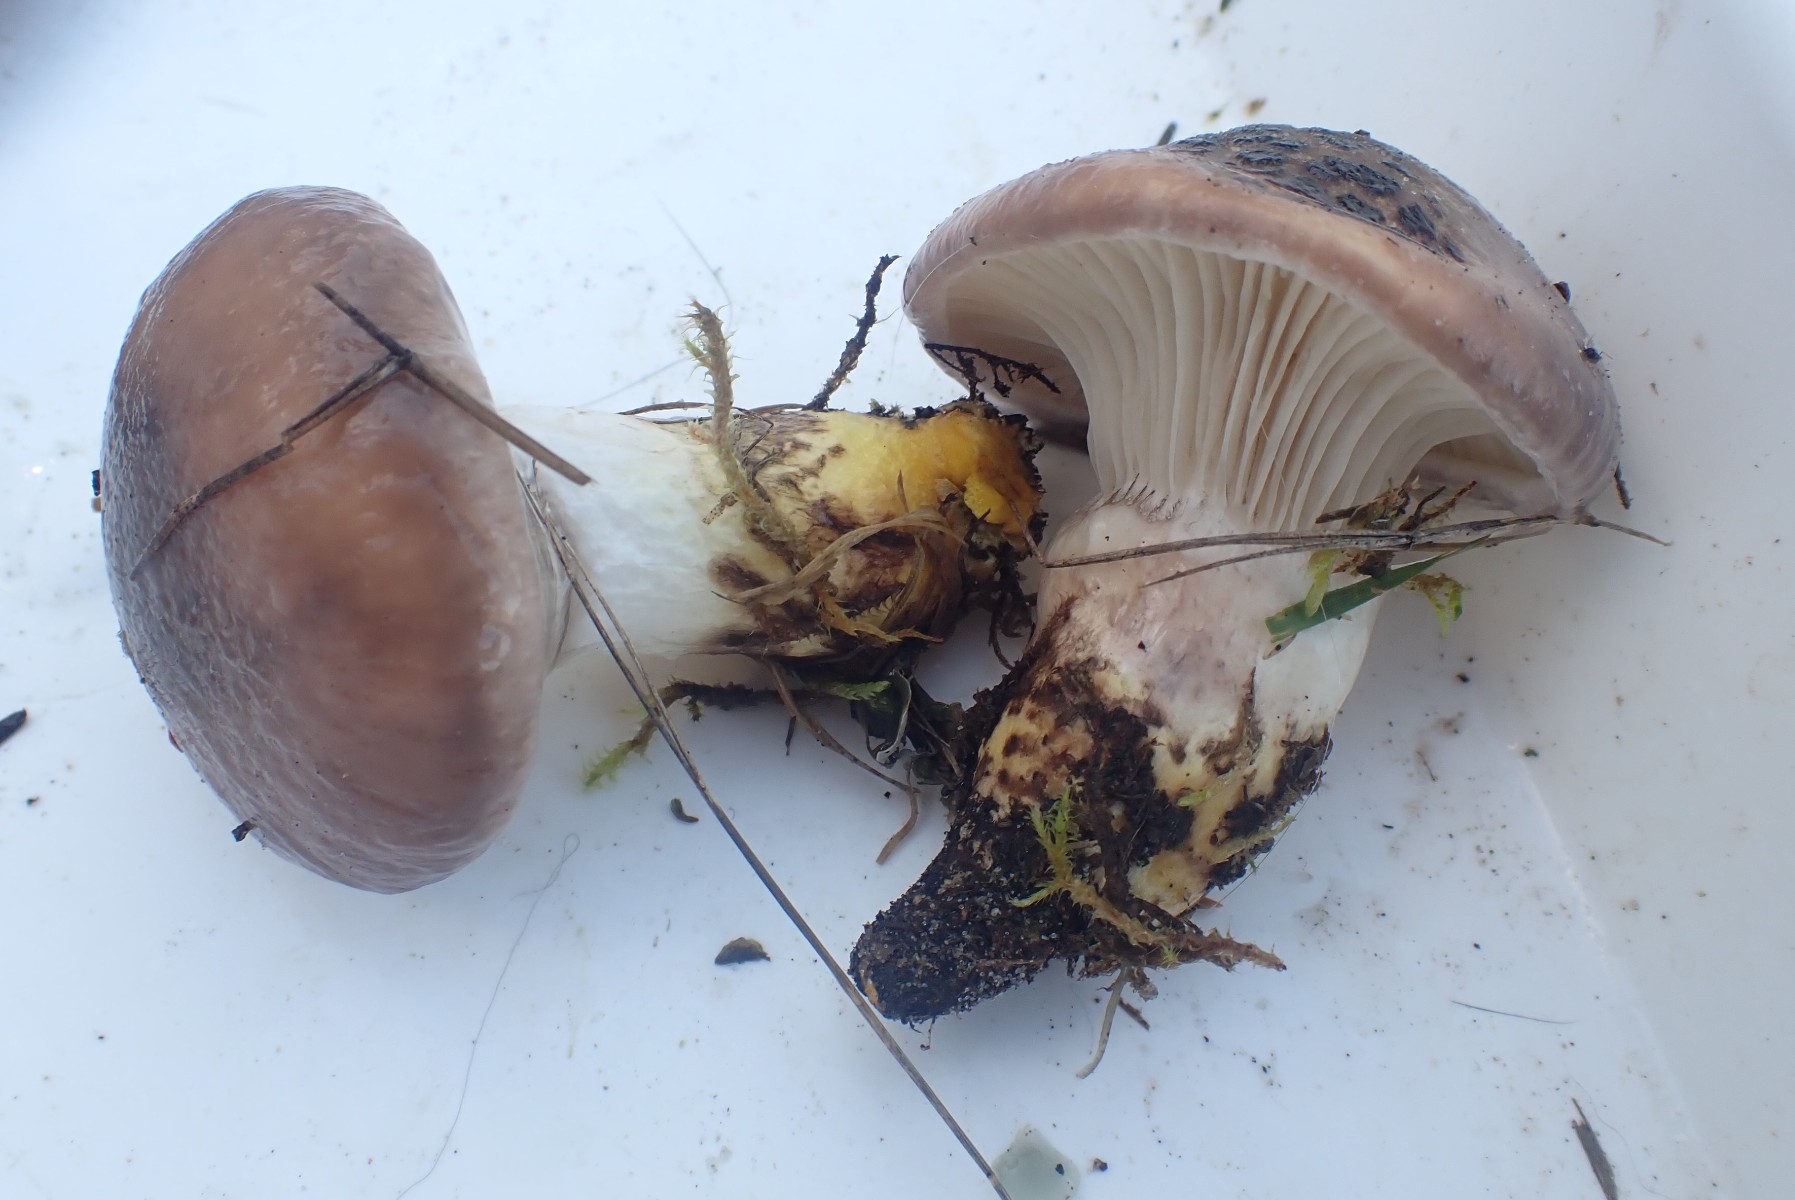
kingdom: Fungi
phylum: Basidiomycota
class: Agaricomycetes
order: Boletales
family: Gomphidiaceae
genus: Gomphidius
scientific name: Gomphidius glutinosus
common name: grå slimslør
